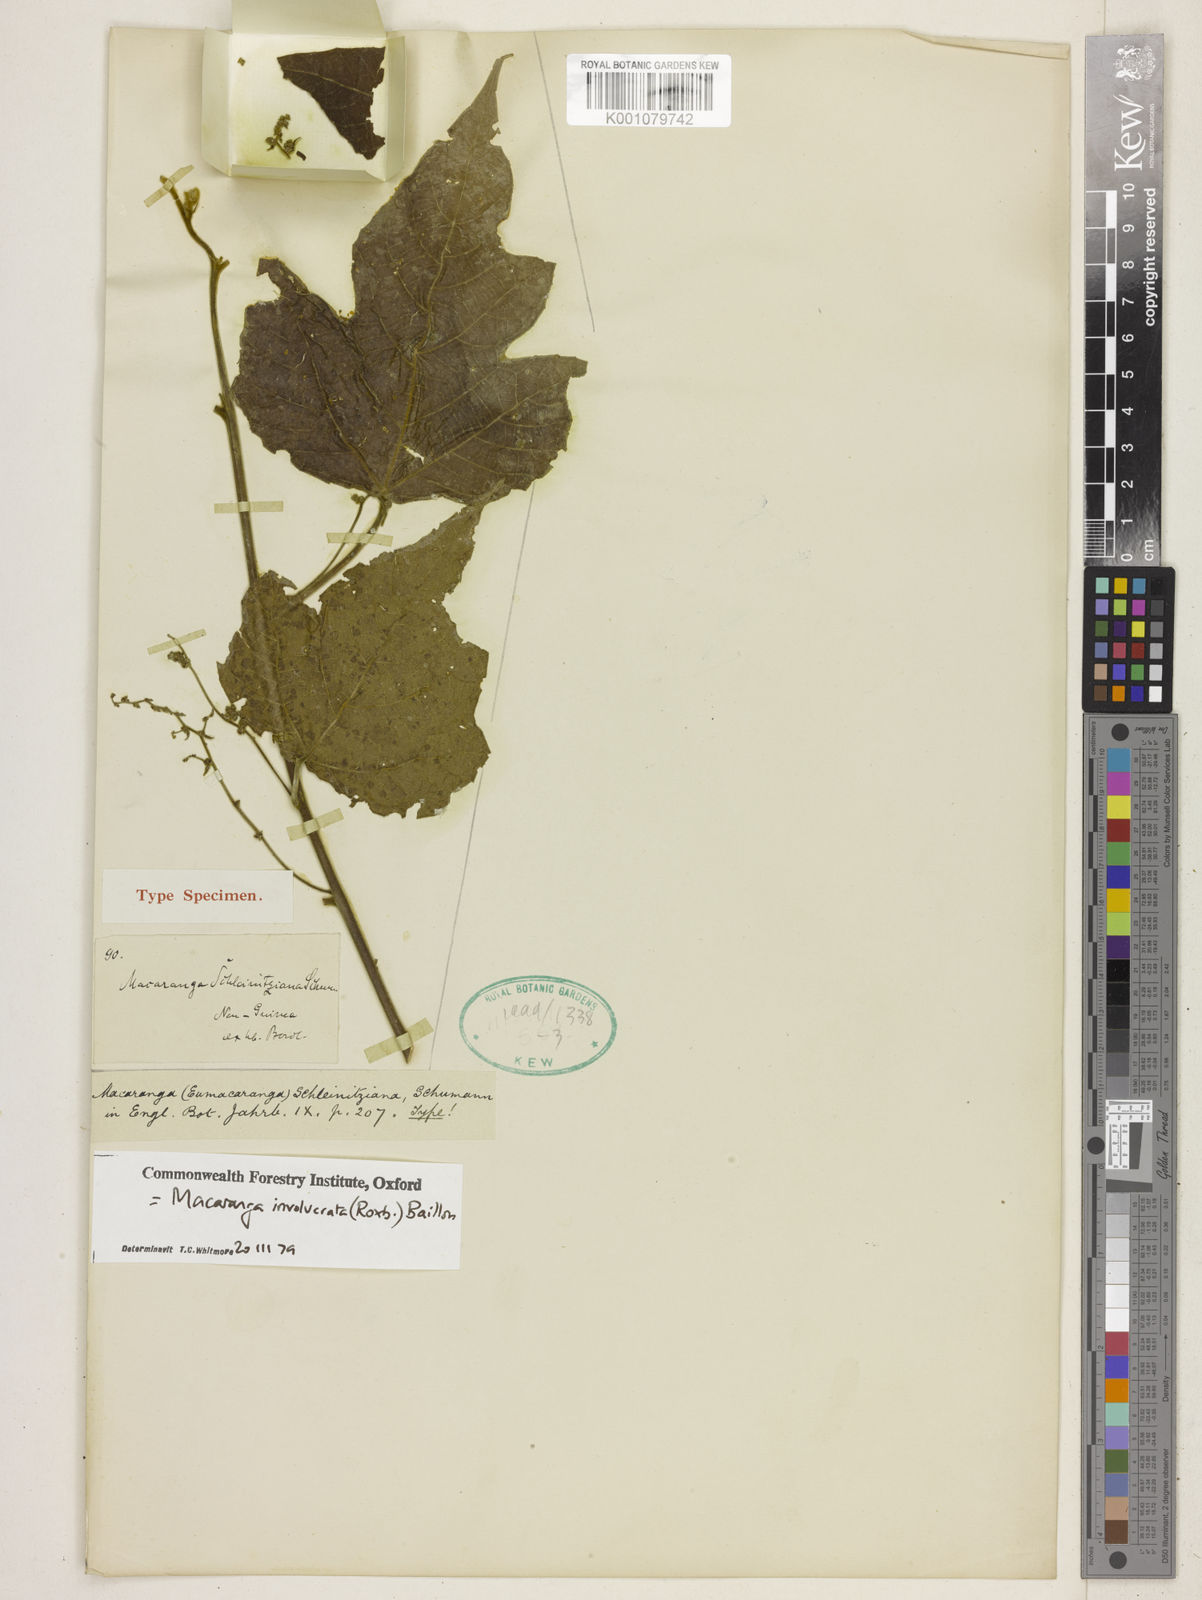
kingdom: Plantae
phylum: Tracheophyta
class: Magnoliopsida
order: Malpighiales
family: Euphorbiaceae
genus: Macaranga
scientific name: Macaranga involucrata
